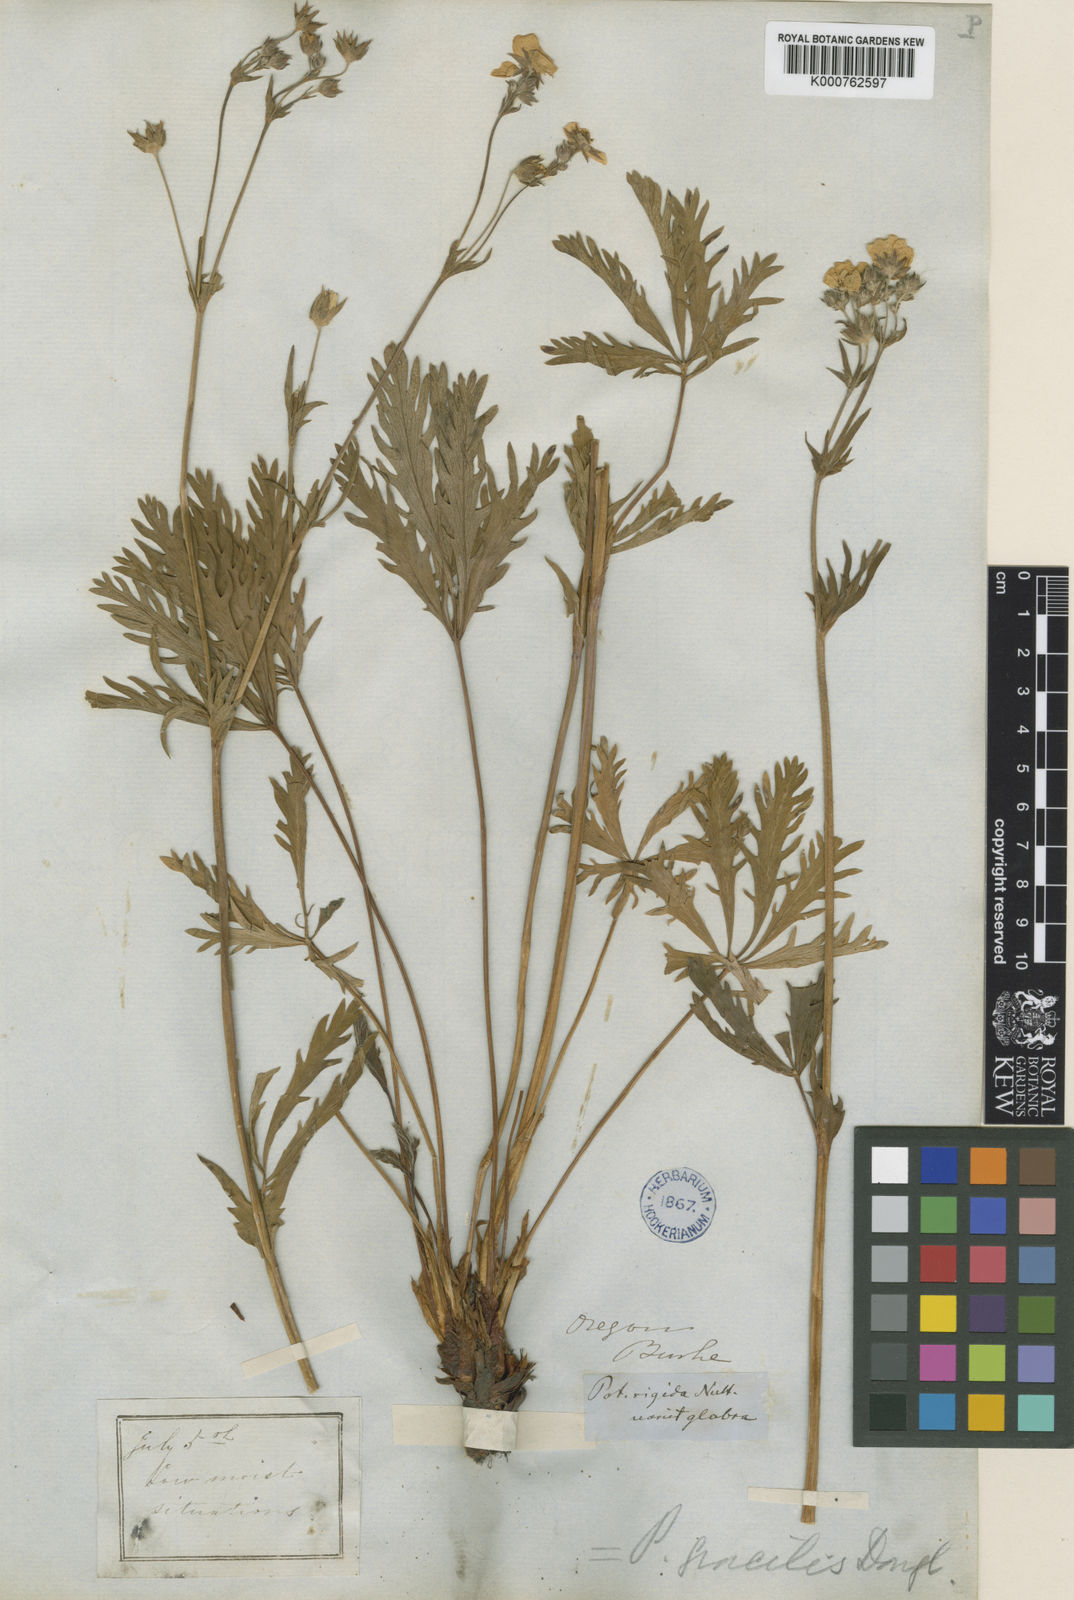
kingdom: Plantae
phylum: Tracheophyta
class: Magnoliopsida
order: Rosales
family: Rosaceae
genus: Potentilla
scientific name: Potentilla gracilis
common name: Graceful cinquefoil
